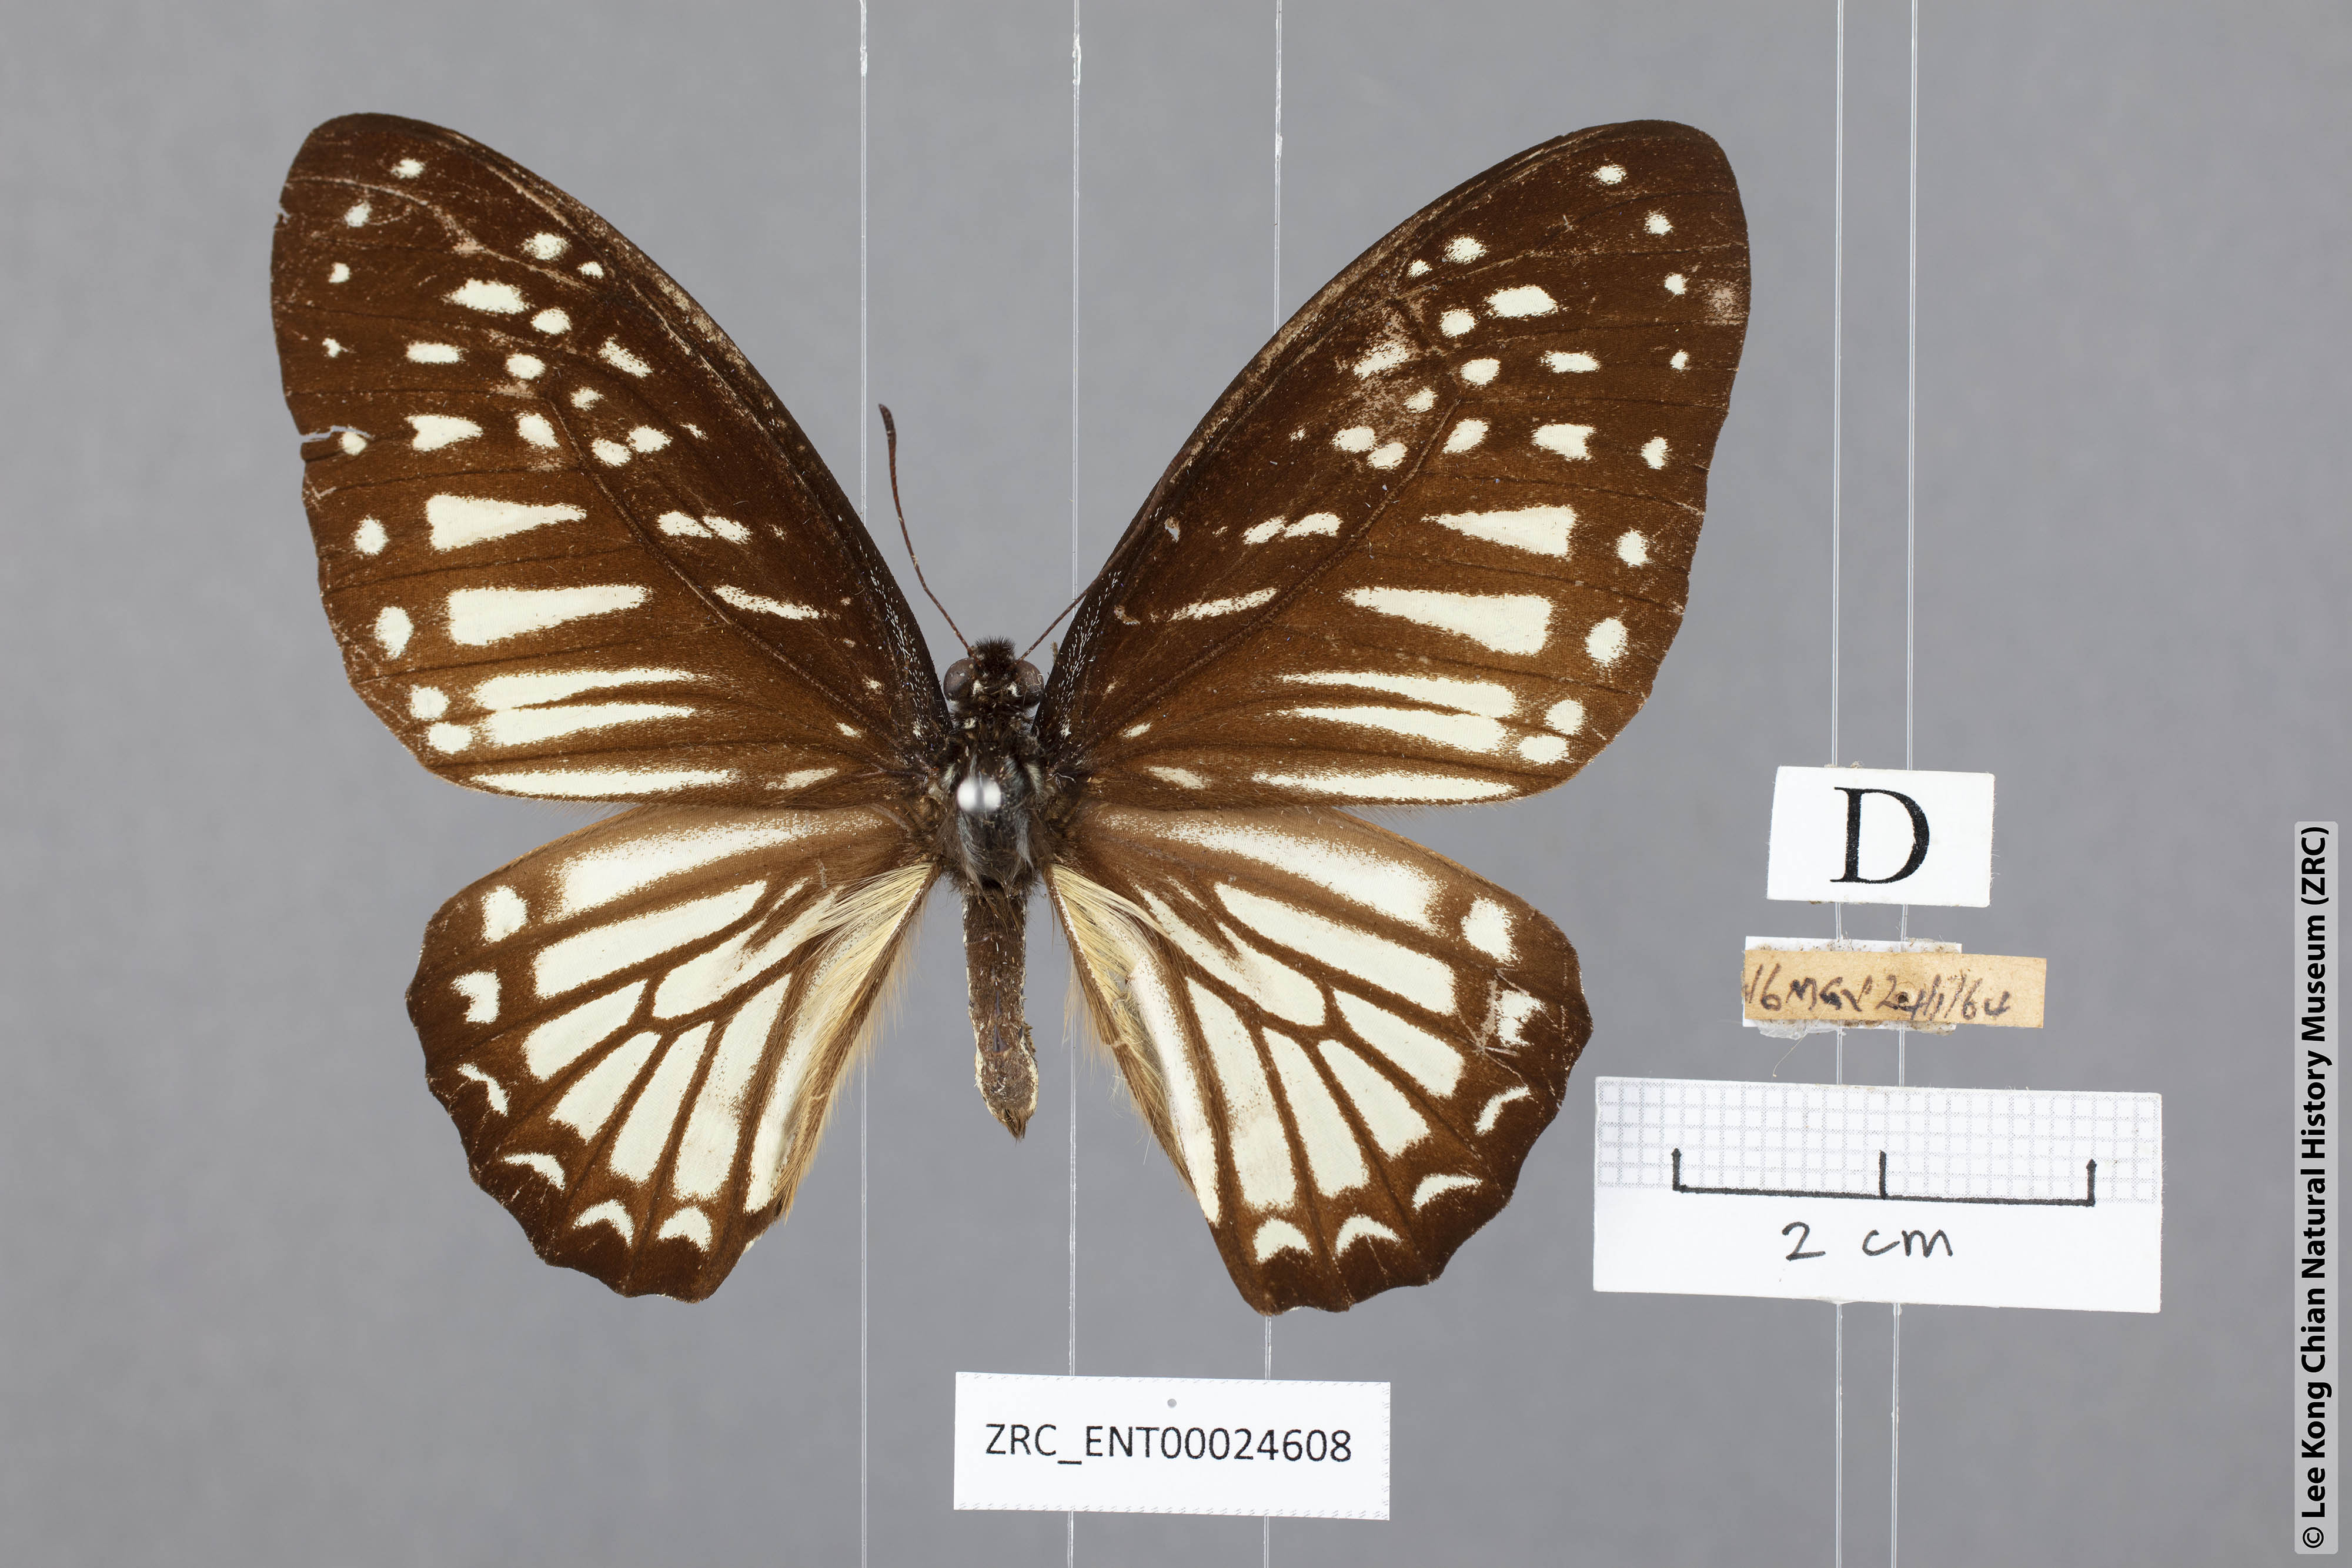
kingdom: Animalia
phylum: Arthropoda
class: Insecta
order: Lepidoptera
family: Papilionidae
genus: Graphium
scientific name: Graphium ramaceus
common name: Pendlebury's zebra
